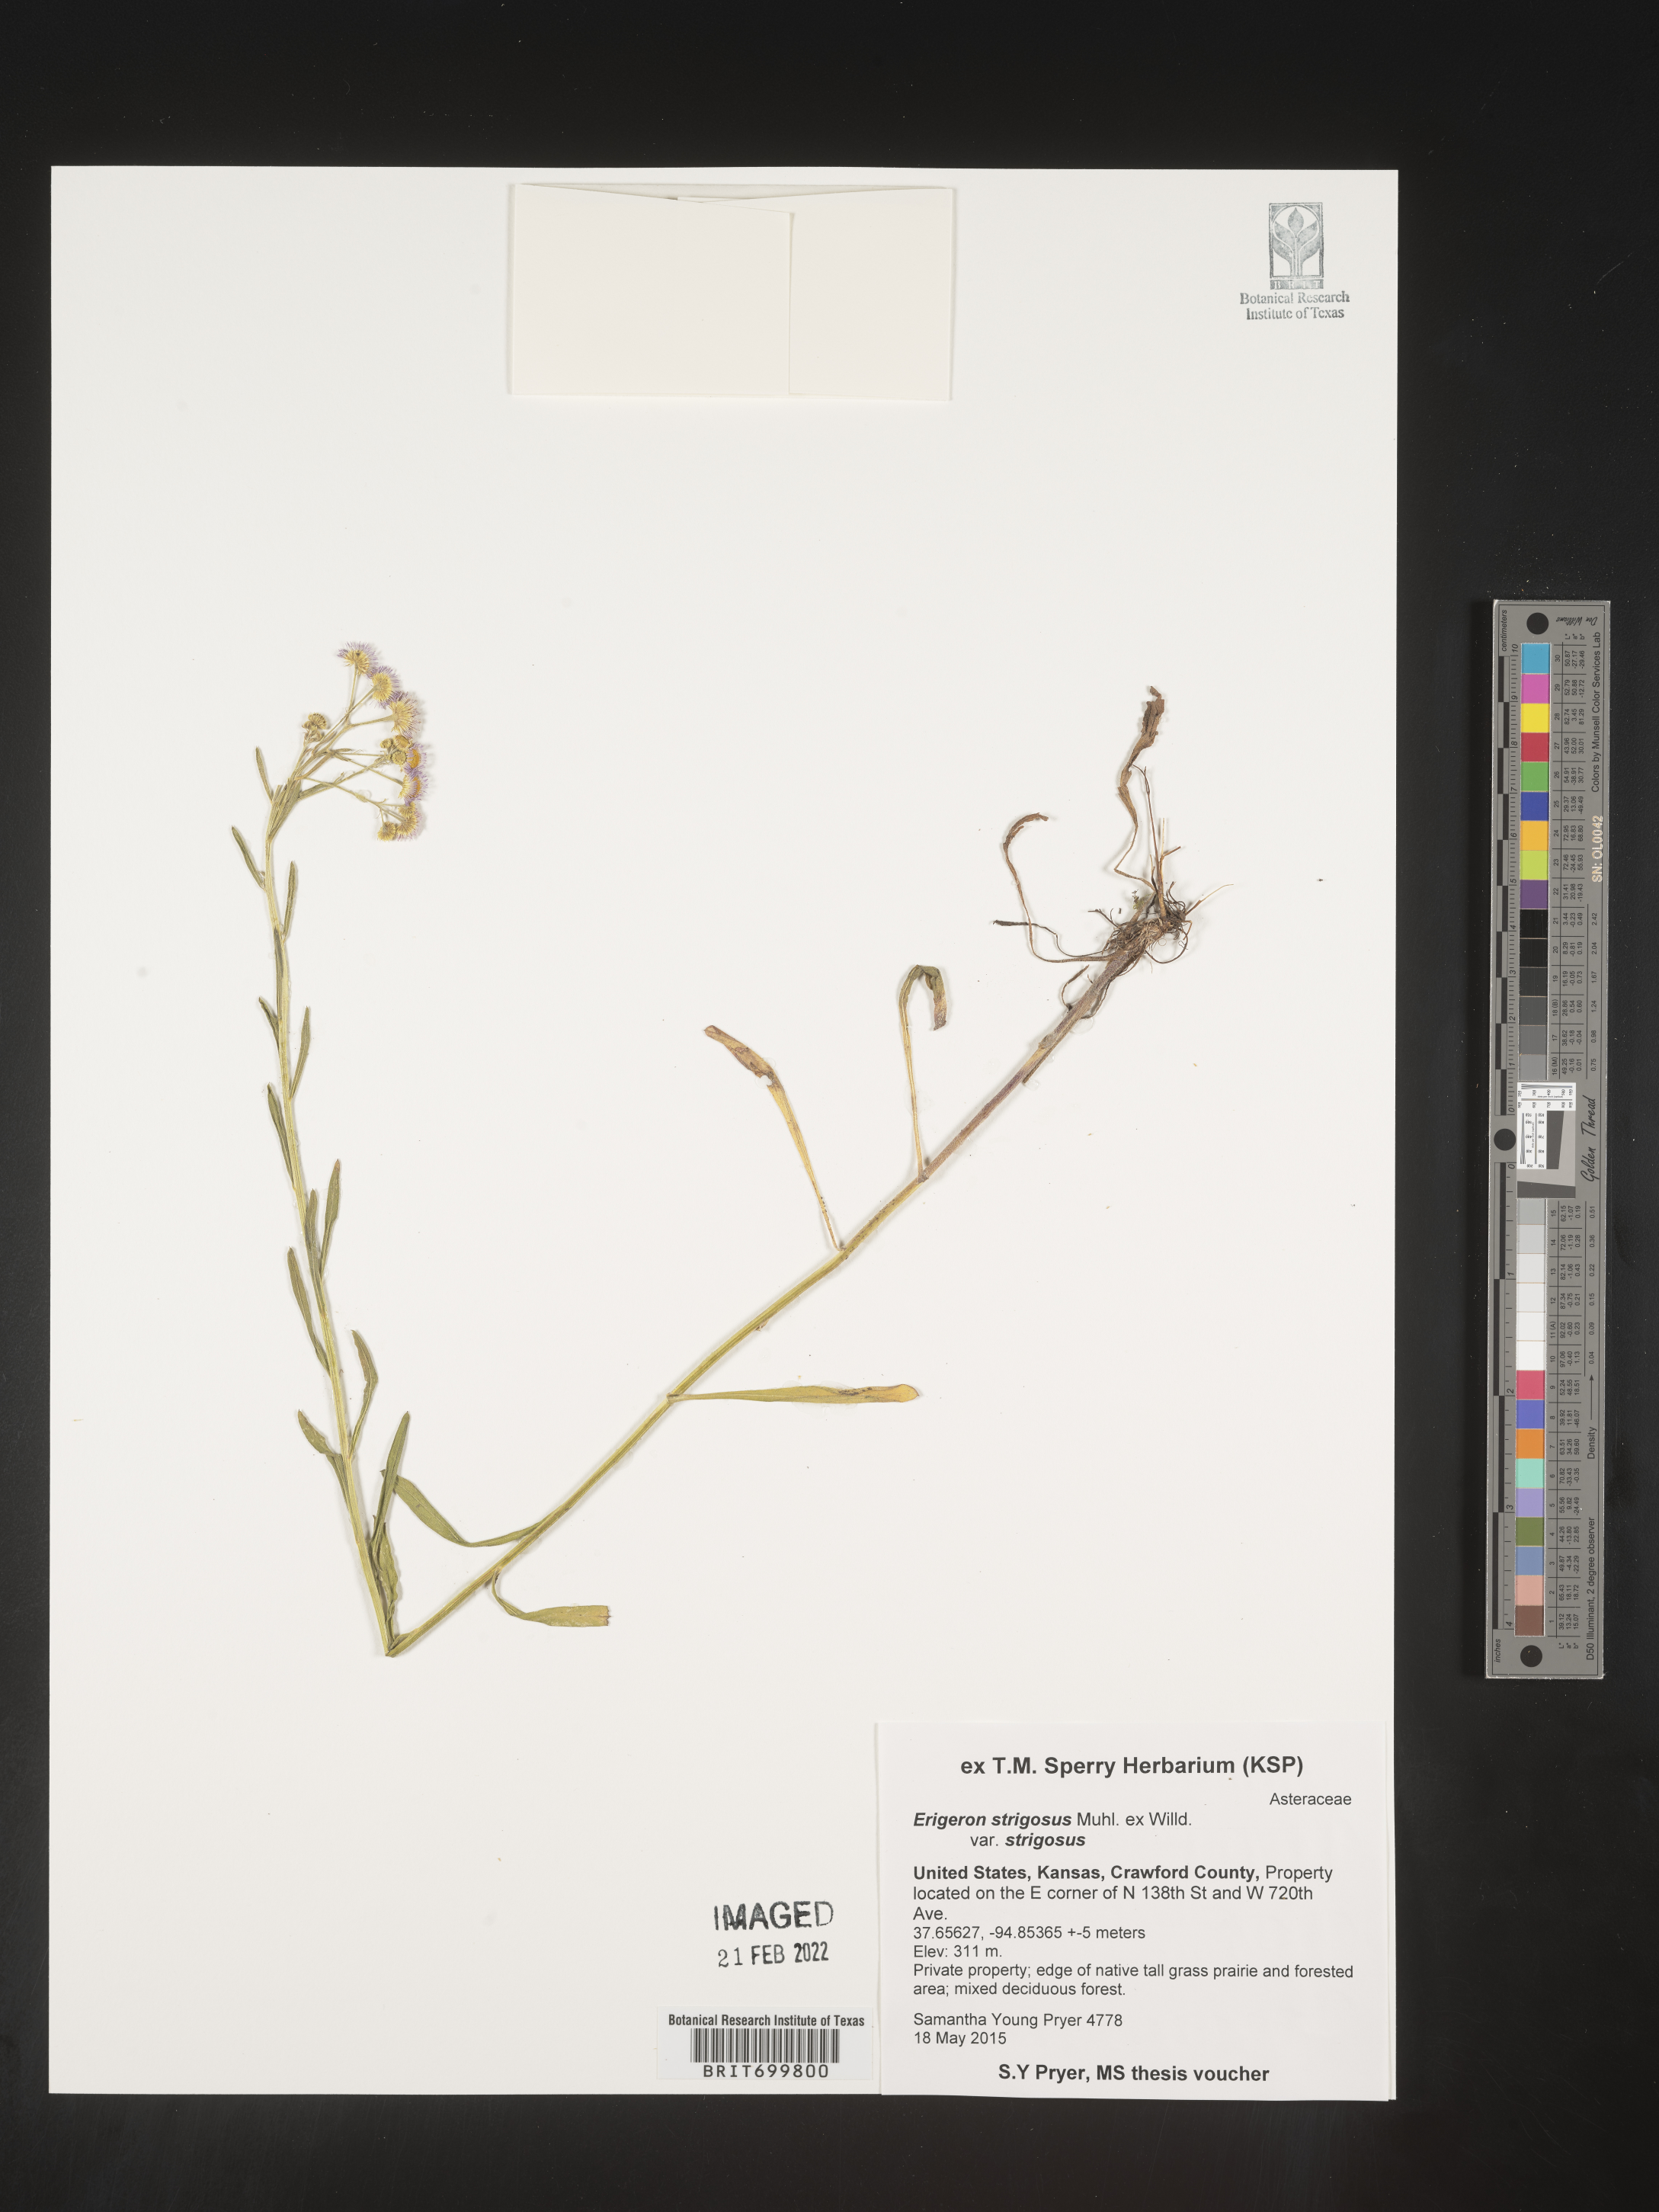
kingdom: Plantae
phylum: Tracheophyta
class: Magnoliopsida
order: Asterales
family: Asteraceae
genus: Erigeron
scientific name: Erigeron strigosus
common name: Common eastern fleabane
